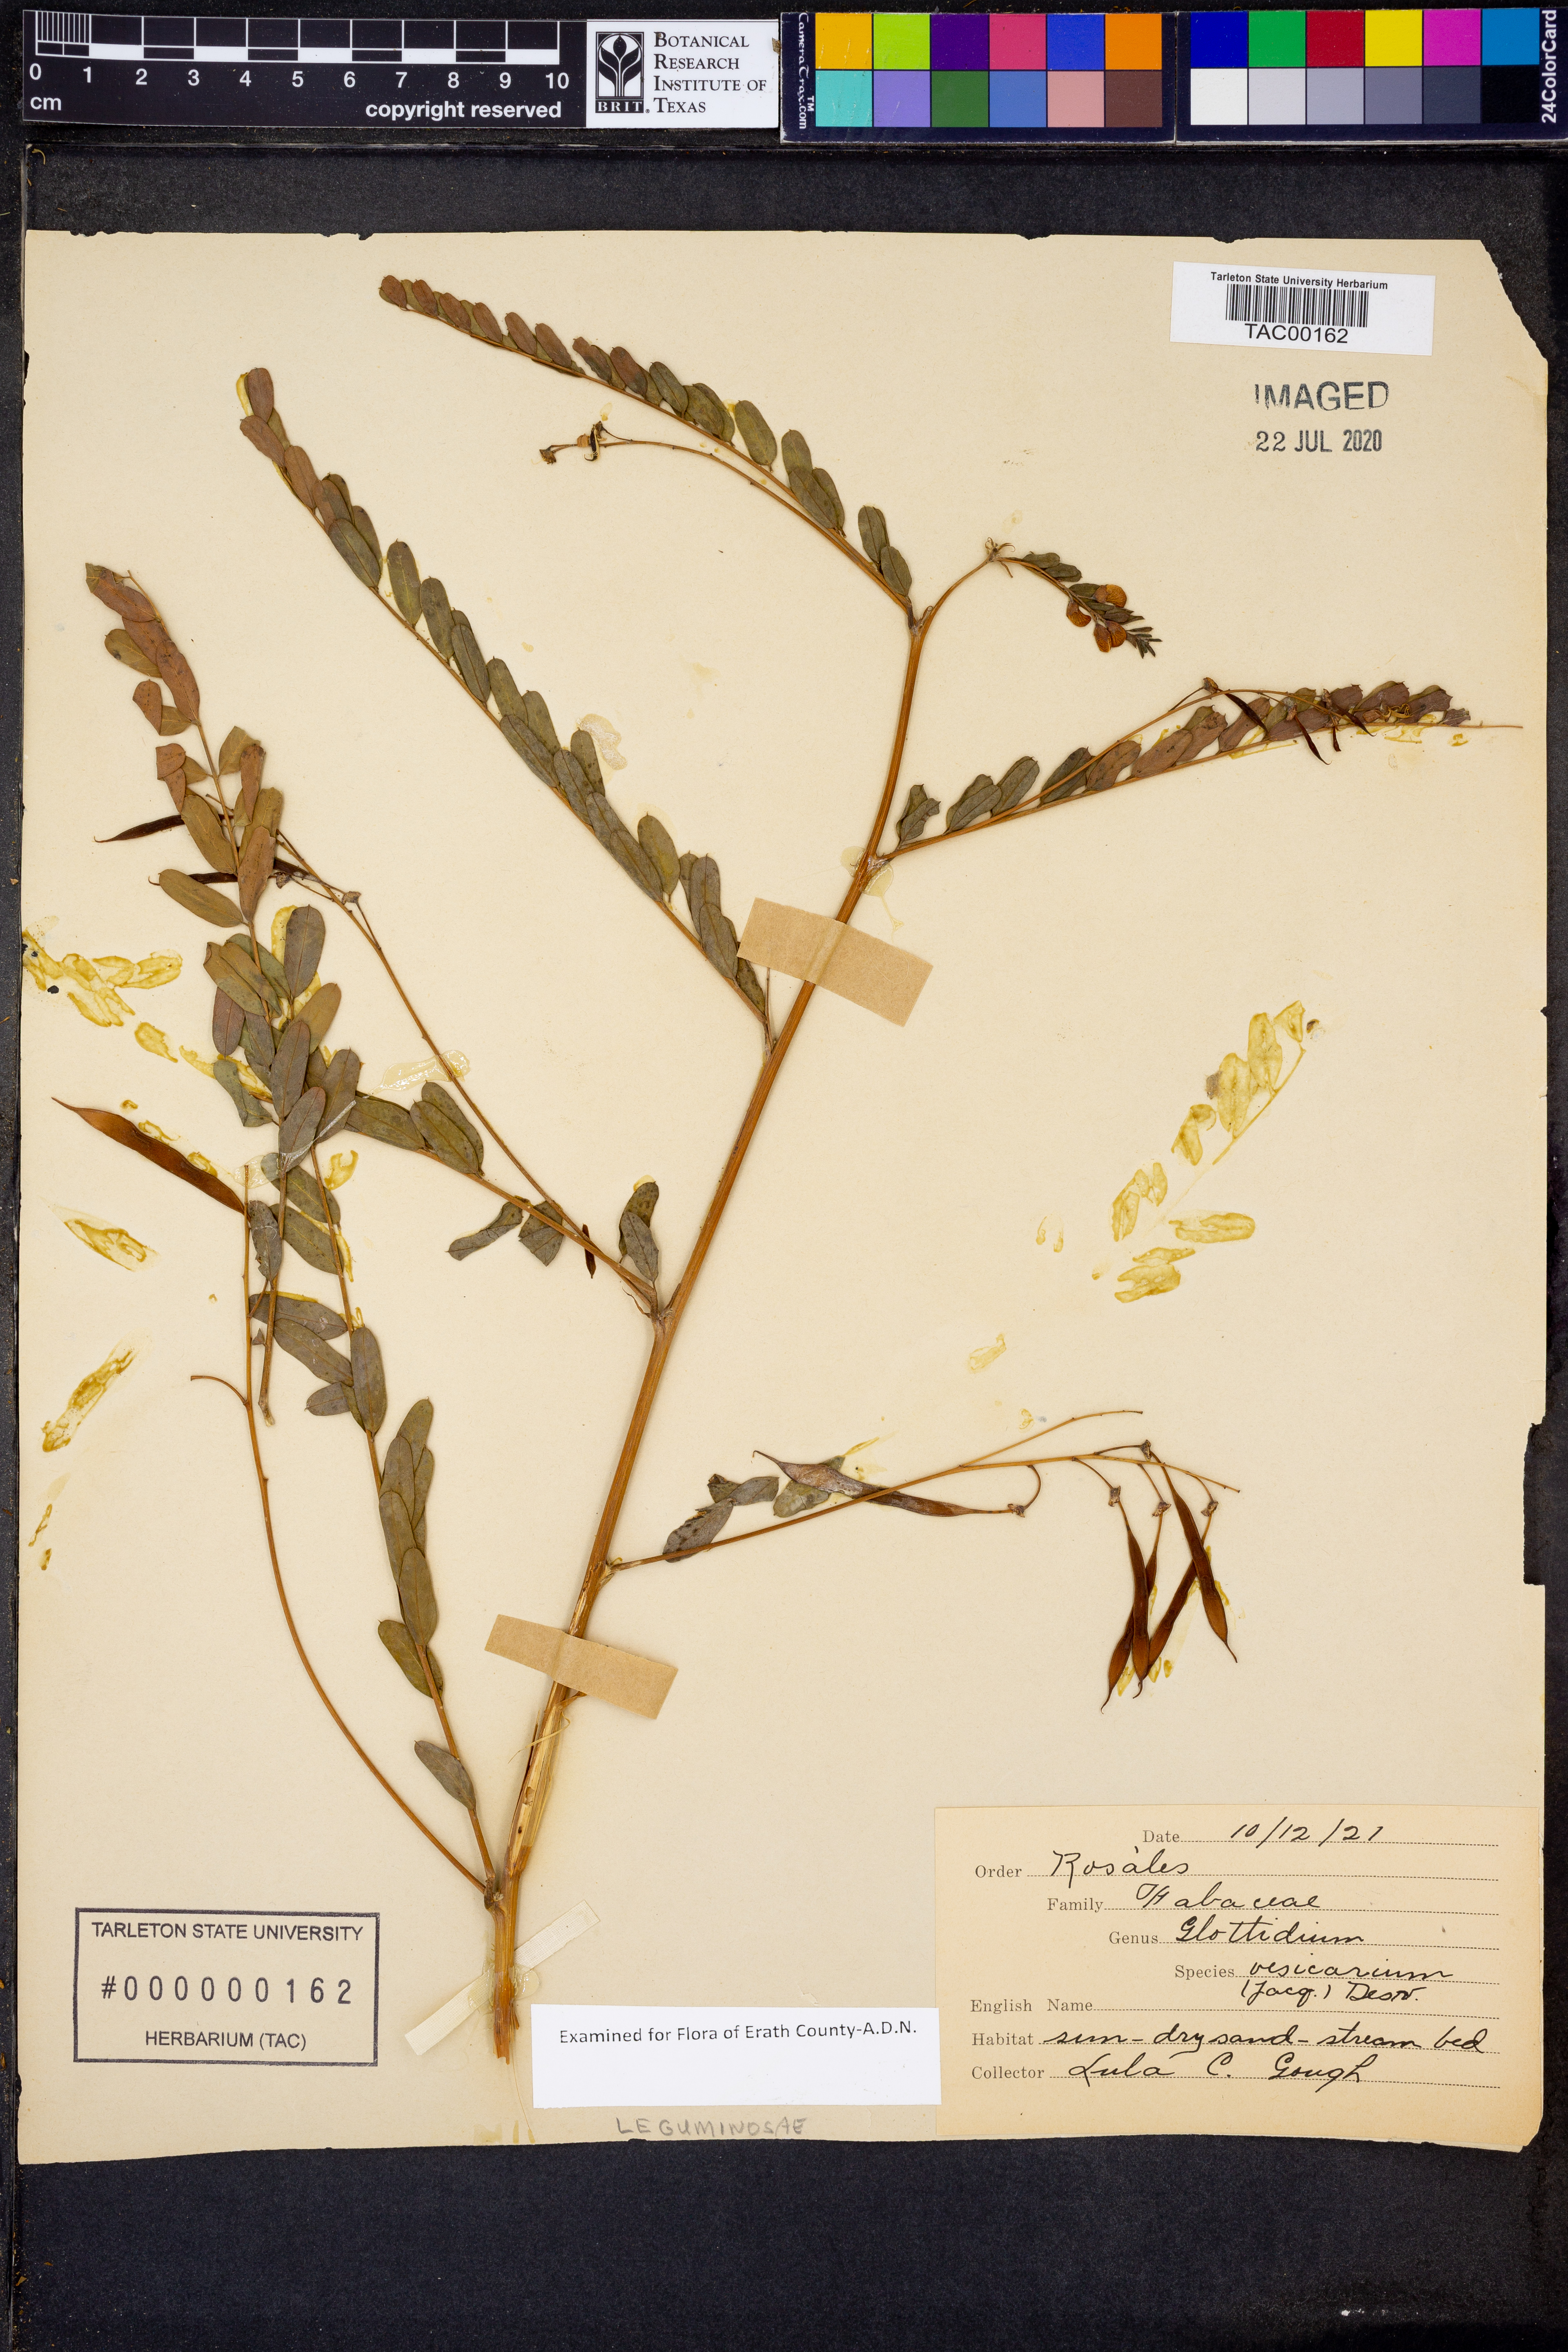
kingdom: Plantae
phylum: Tracheophyta
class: Magnoliopsida
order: Fabales
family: Fabaceae
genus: Sesbania
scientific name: Sesbania vesicaria
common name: Bagpod
